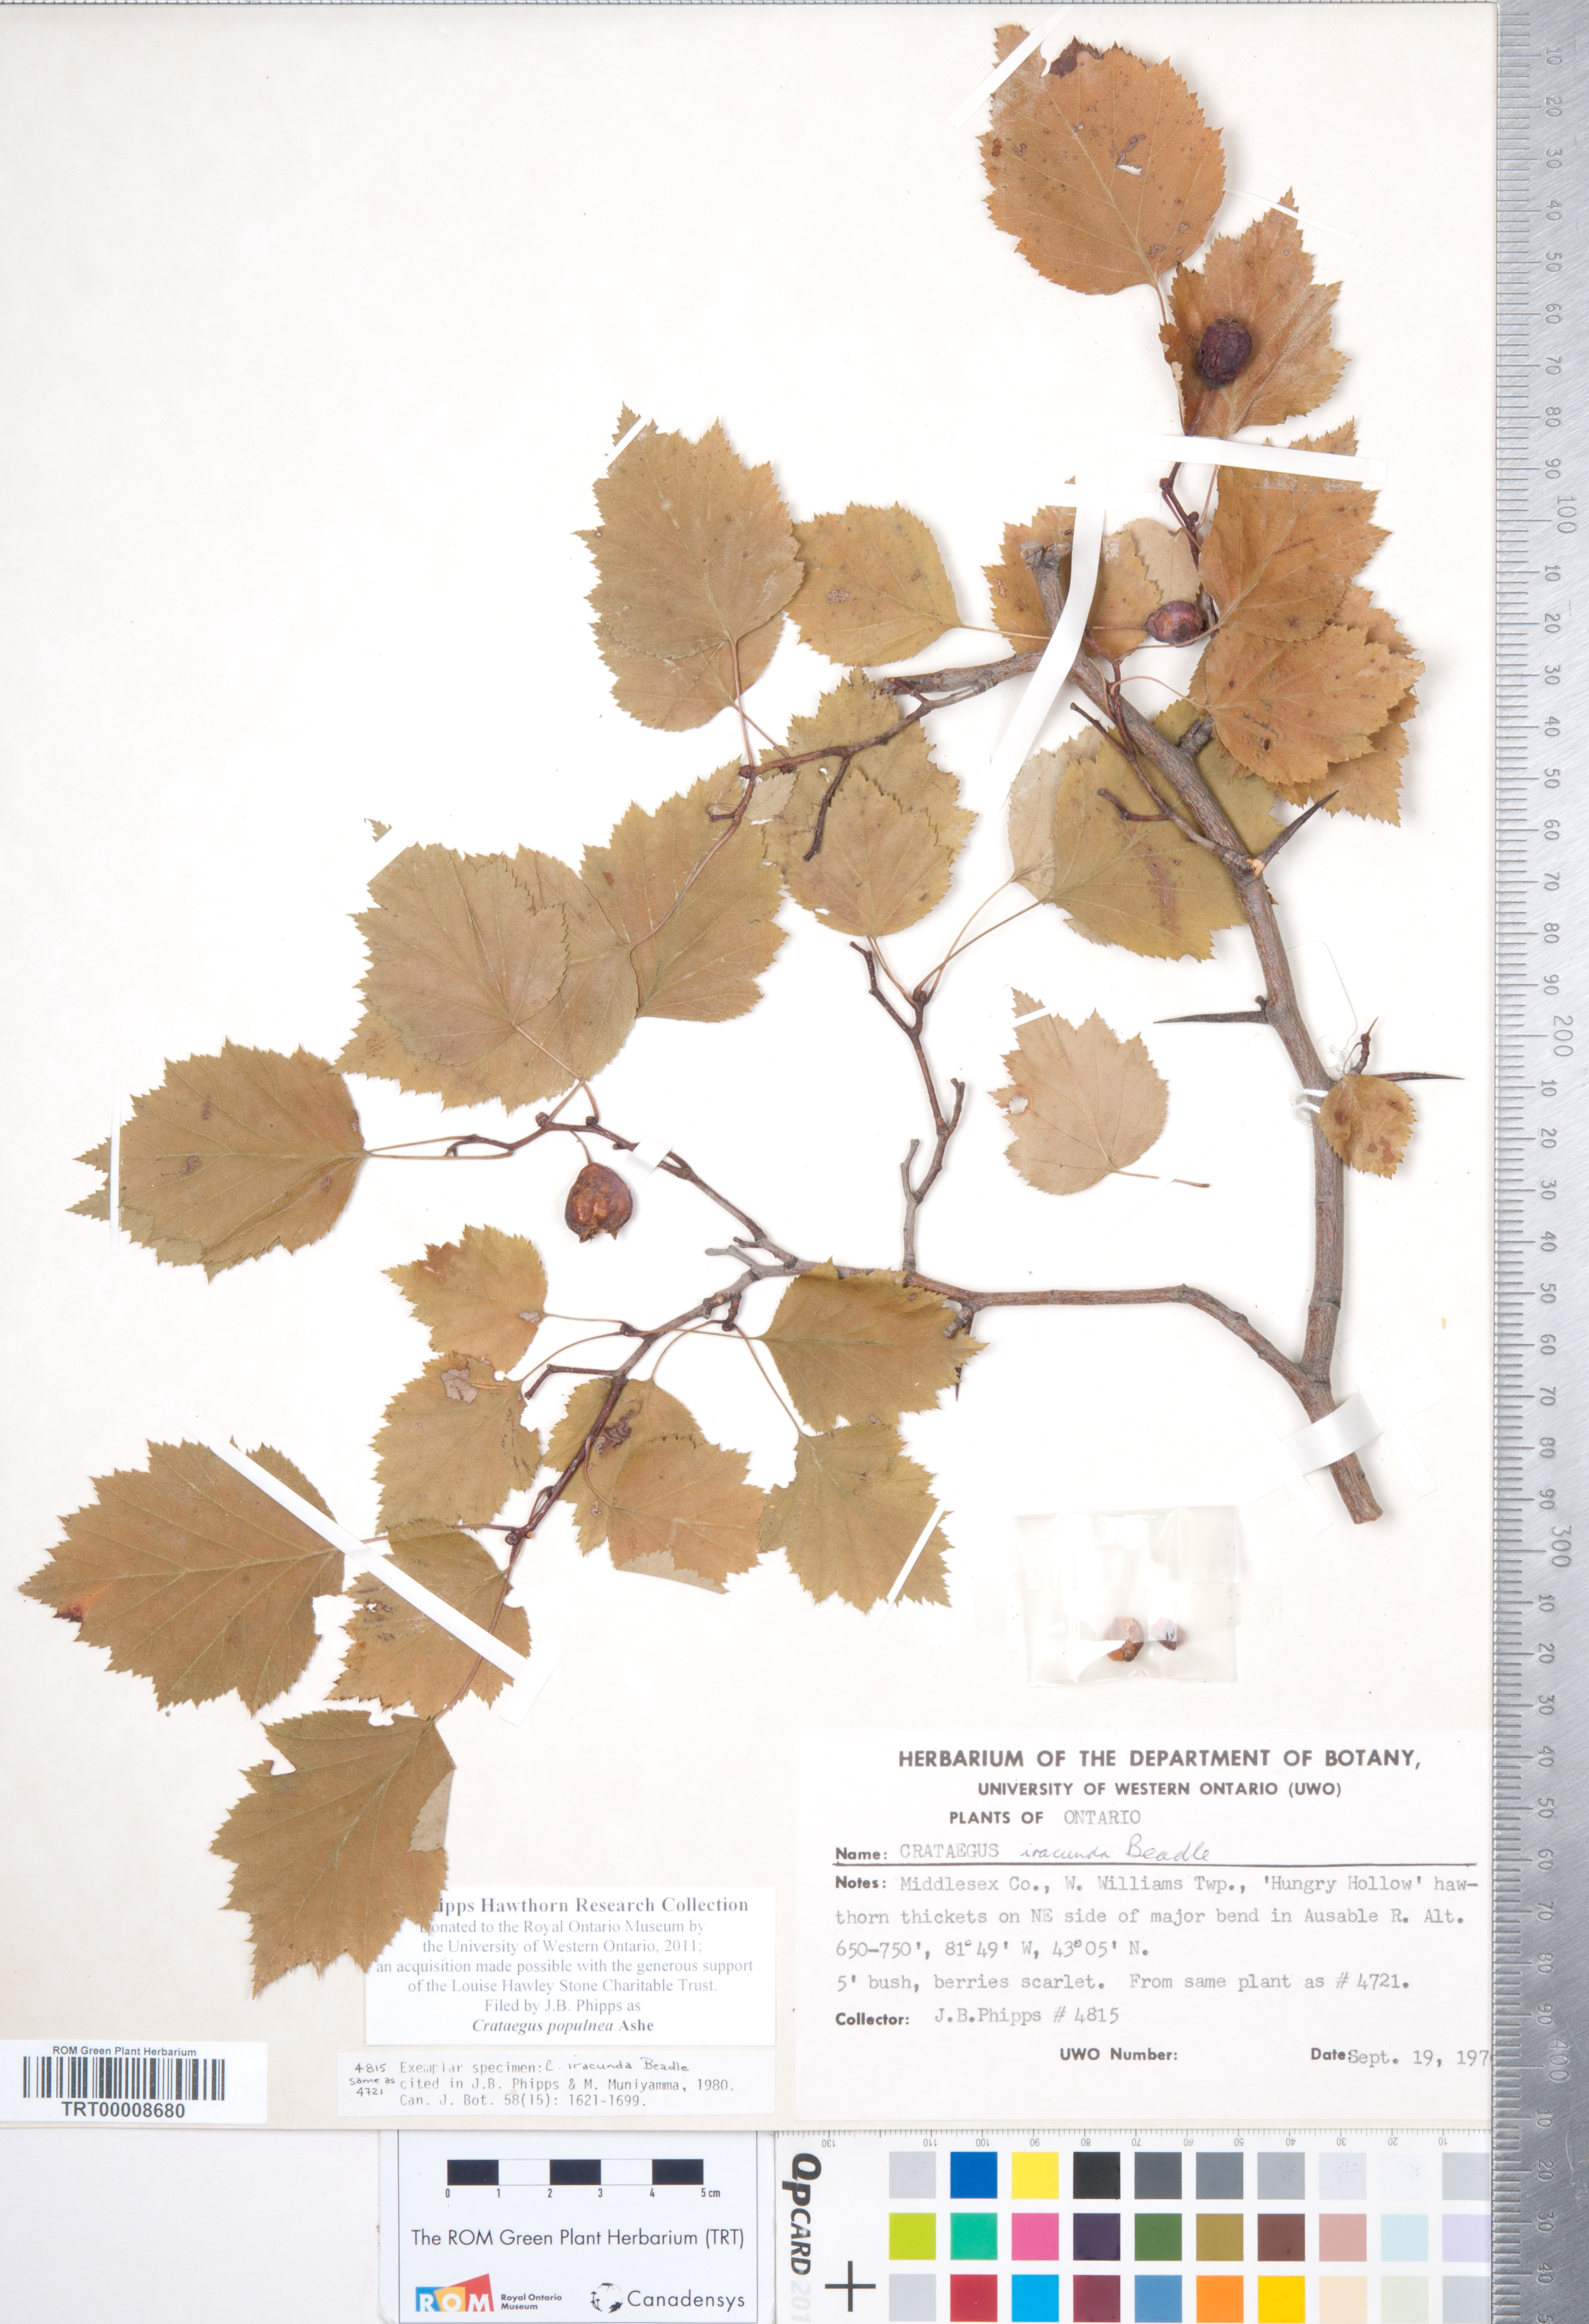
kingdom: Plantae
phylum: Tracheophyta
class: Magnoliopsida
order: Rosales
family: Rosaceae
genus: Crataegus
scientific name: Crataegus populnea
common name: Adorned hawthorn
